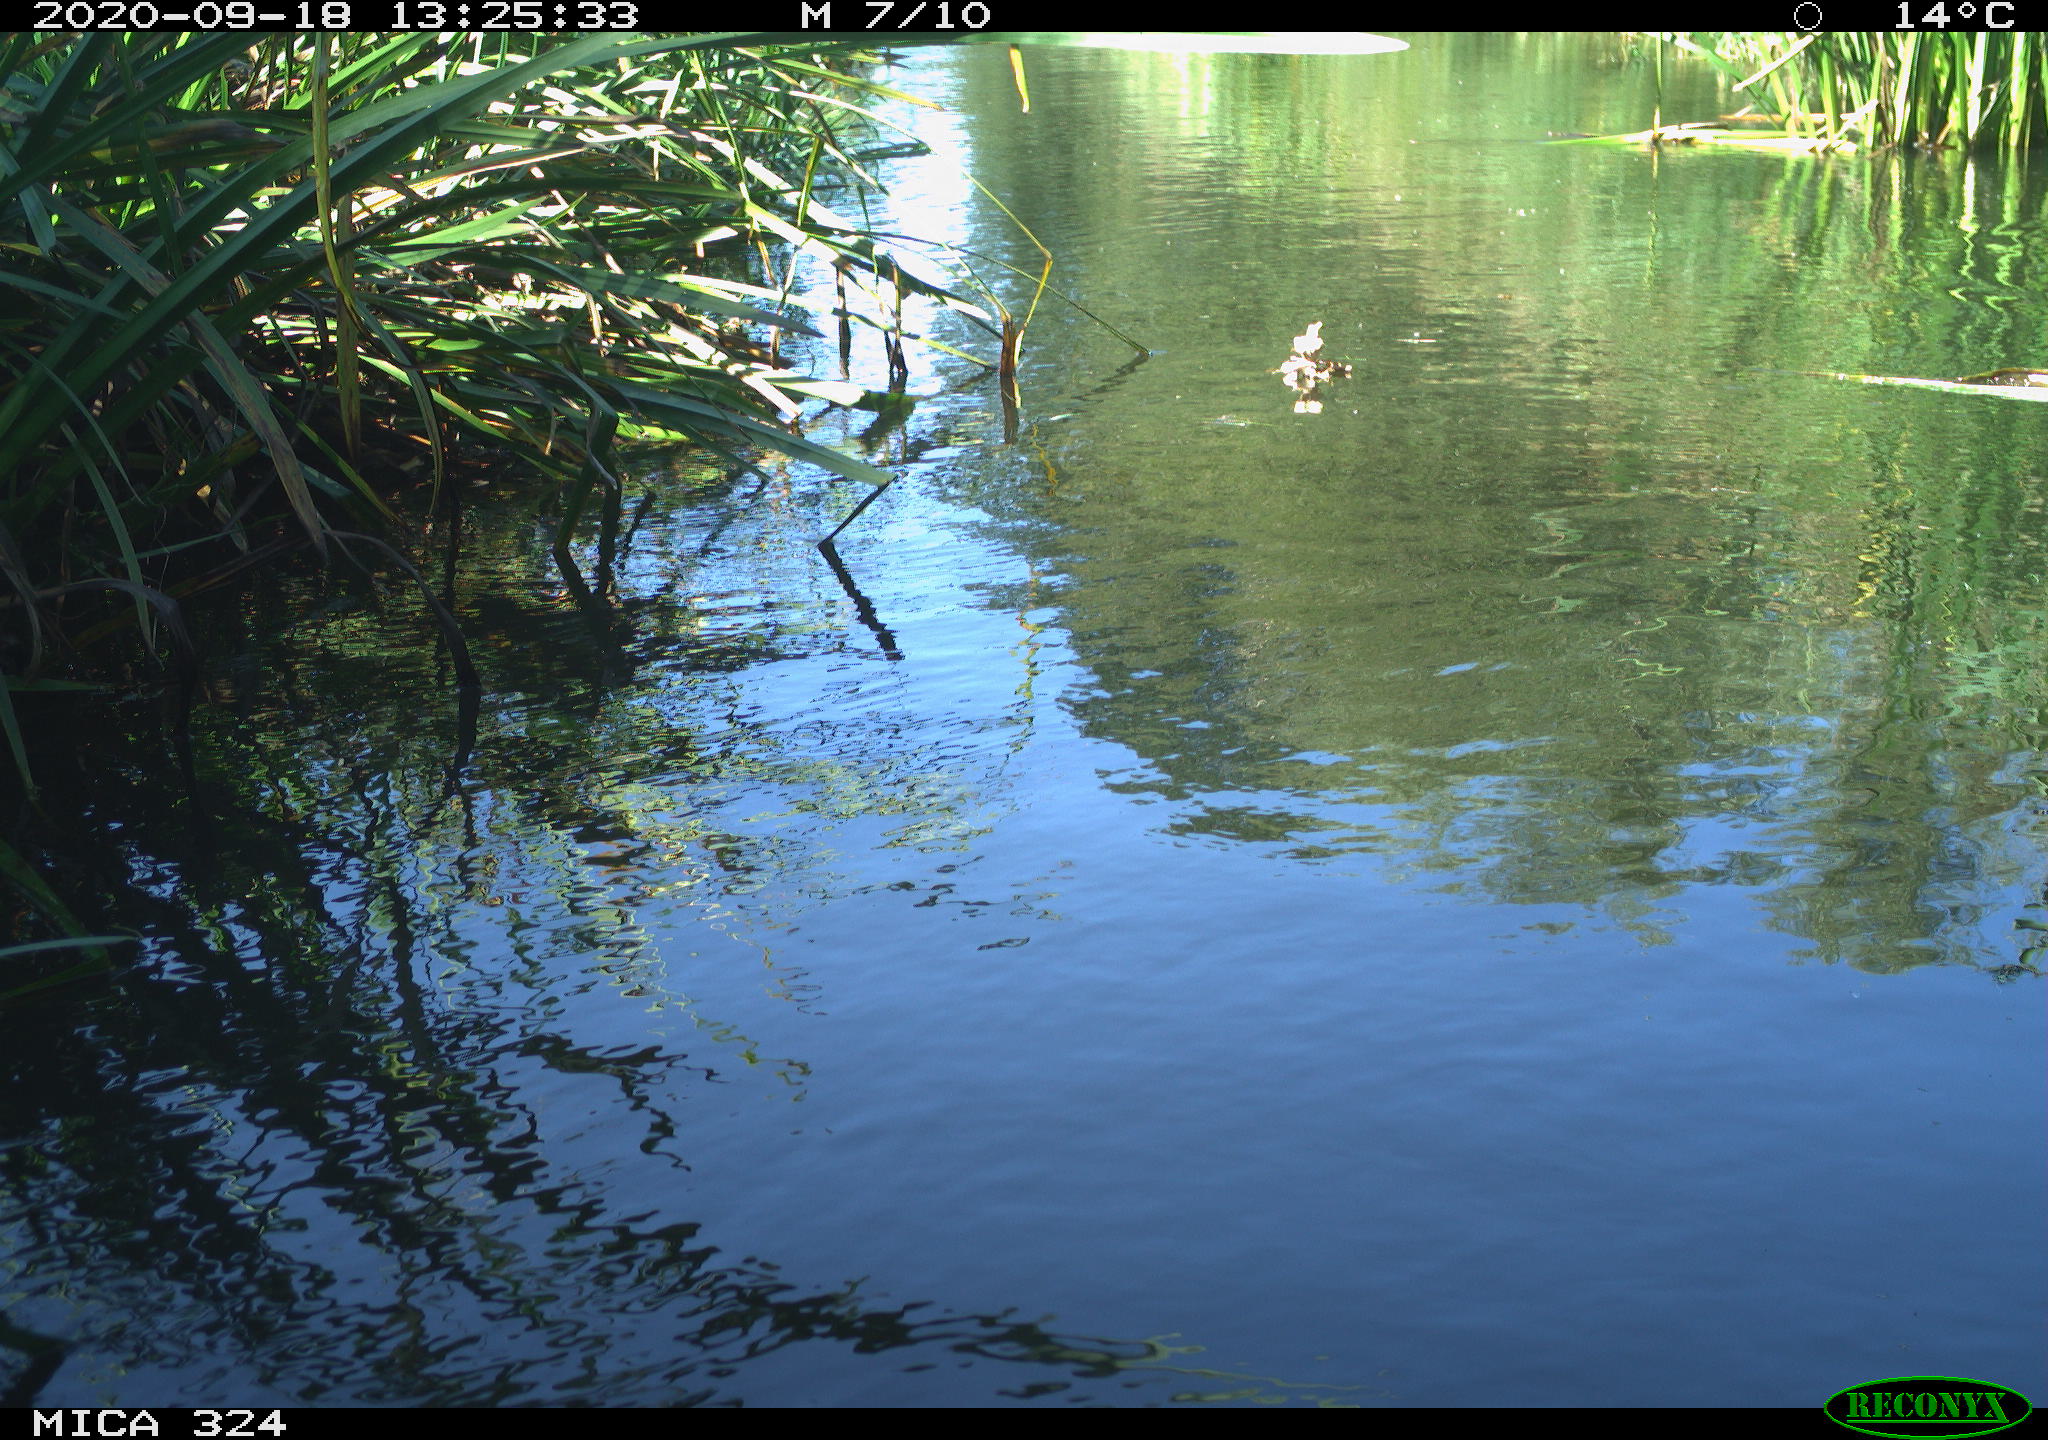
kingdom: Animalia
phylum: Chordata
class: Aves
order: Gruiformes
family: Rallidae
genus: Gallinula
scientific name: Gallinula chloropus
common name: Common moorhen
